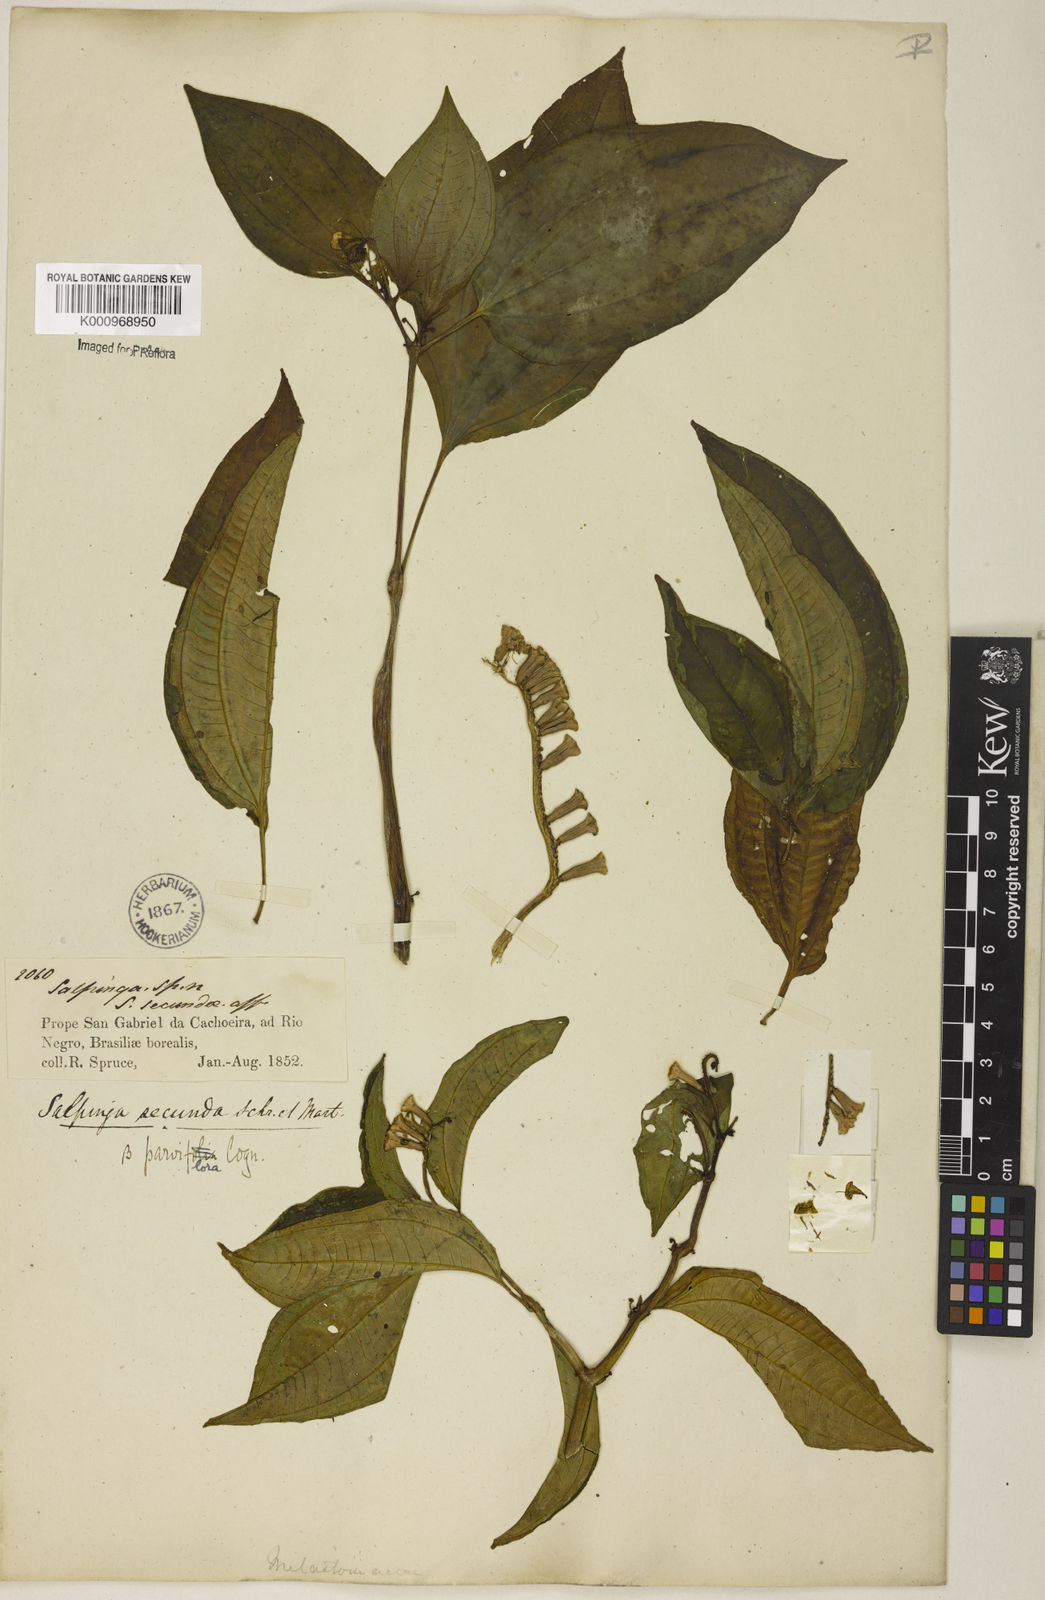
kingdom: Plantae
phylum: Tracheophyta
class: Magnoliopsida
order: Myrtales
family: Melastomataceae
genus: Salpinga
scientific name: Salpinga secunda
